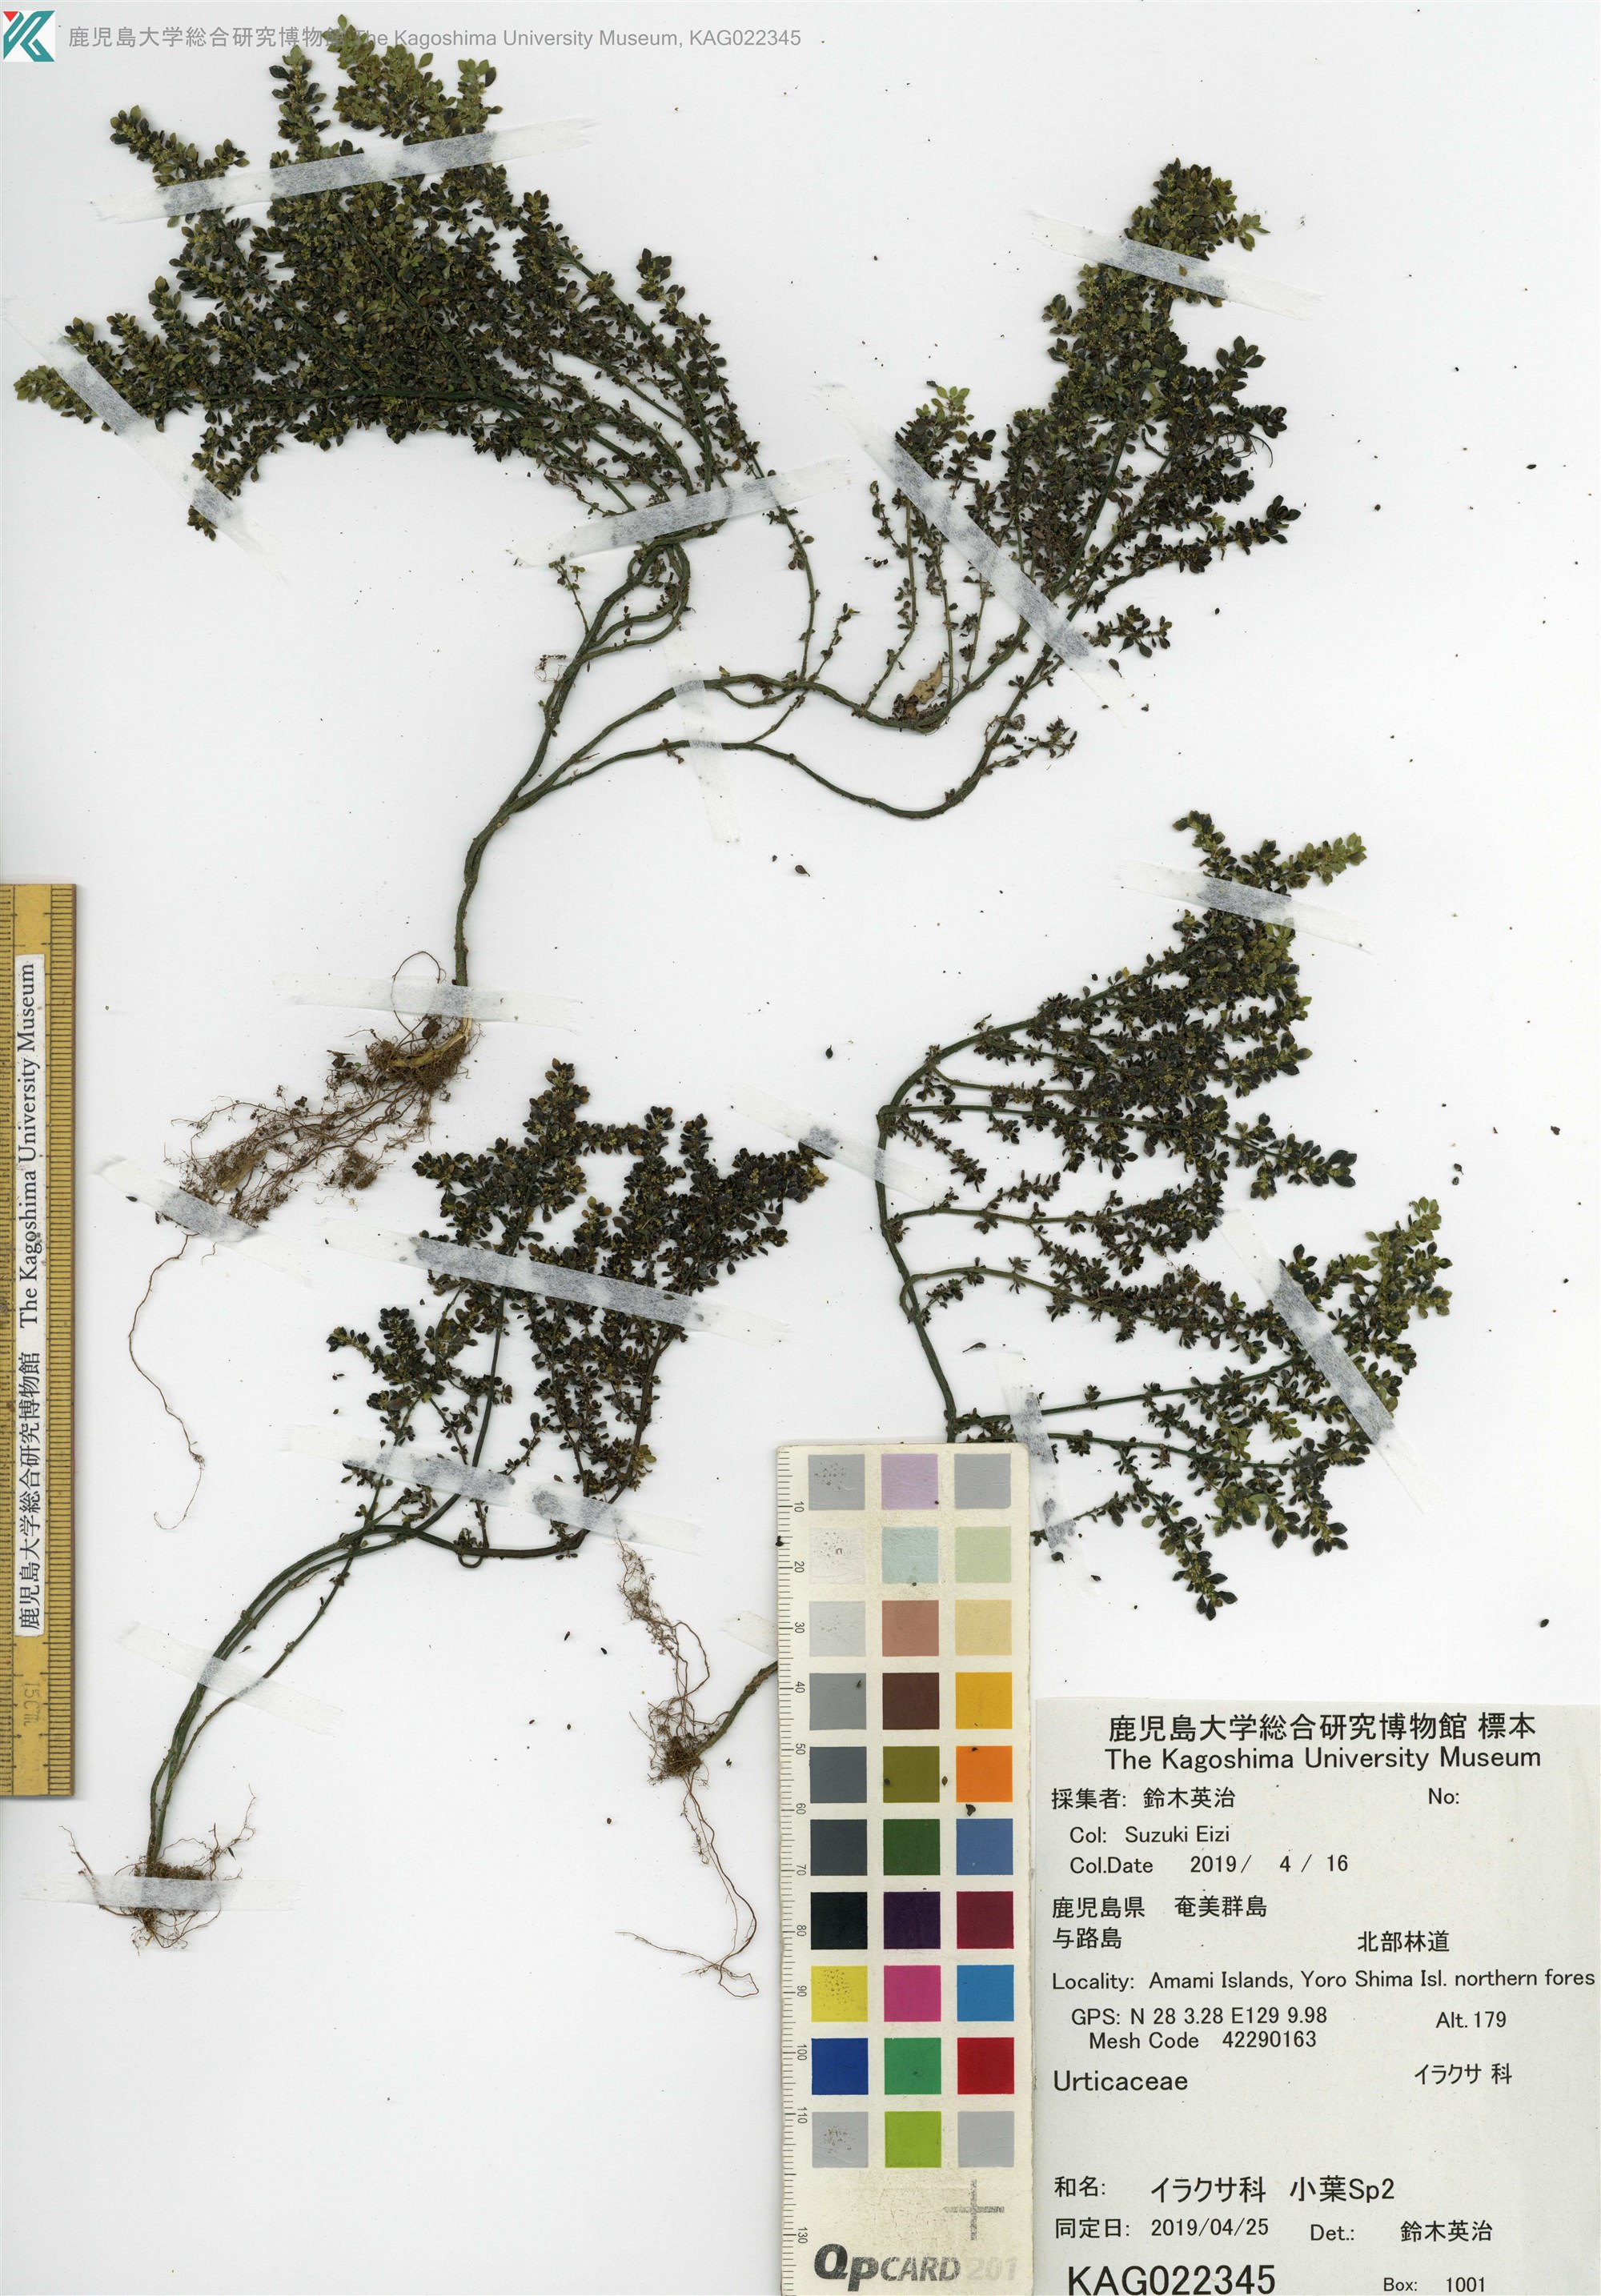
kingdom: Plantae
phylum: Tracheophyta
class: Magnoliopsida
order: Rosales
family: Urticaceae
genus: Pilea
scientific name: Pilea microphylla
